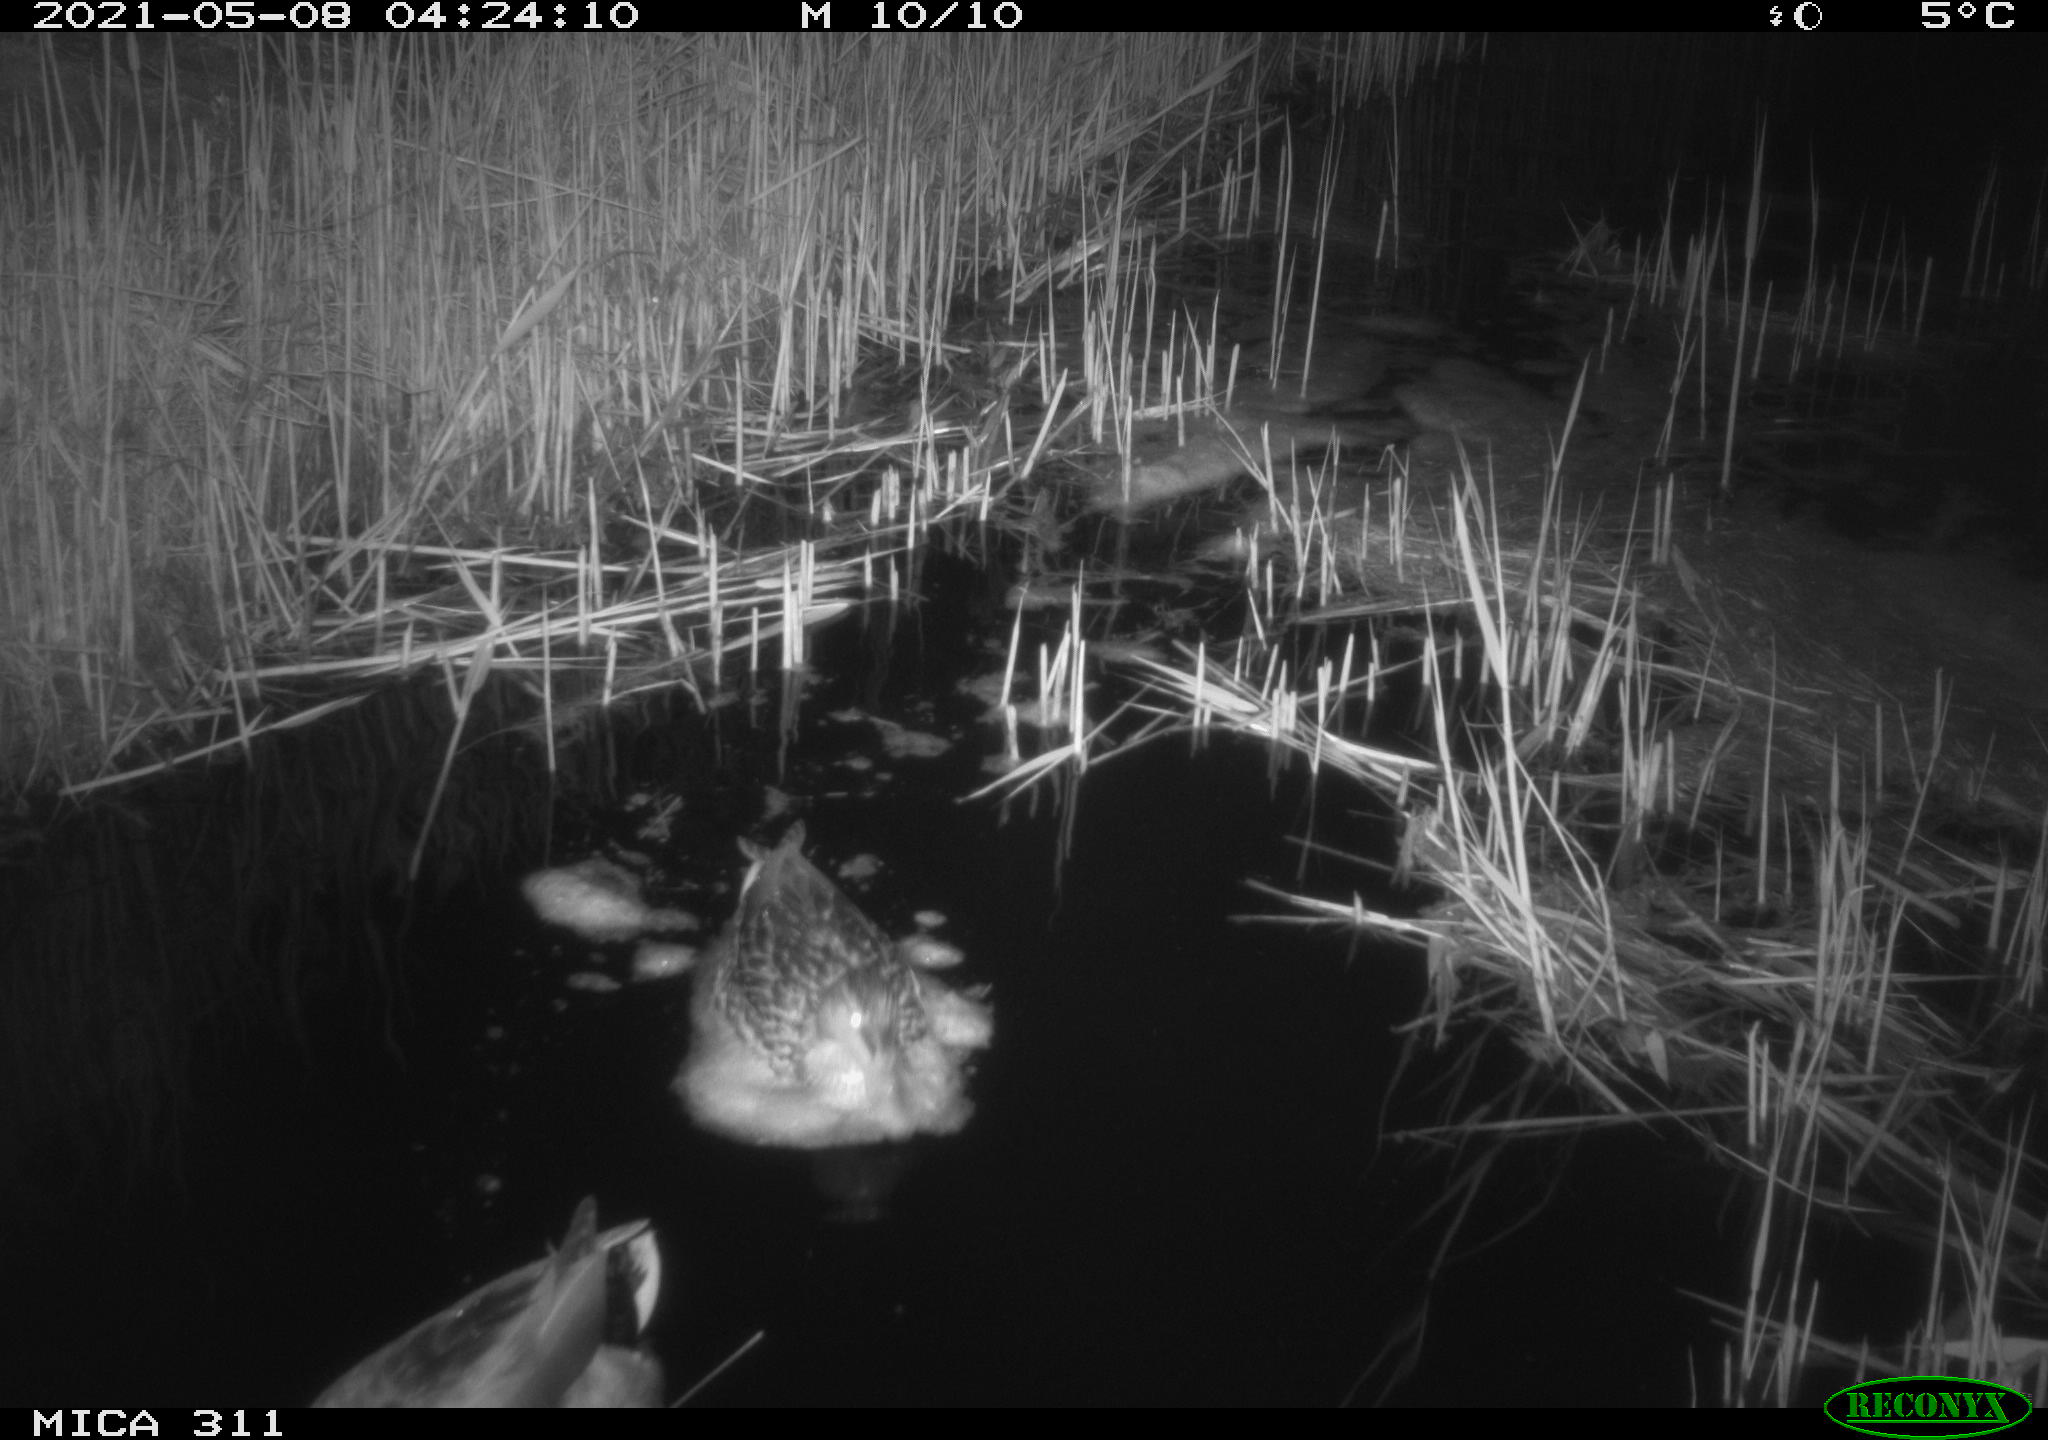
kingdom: Animalia
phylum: Chordata
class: Aves
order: Anseriformes
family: Anatidae
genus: Anas
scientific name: Anas
